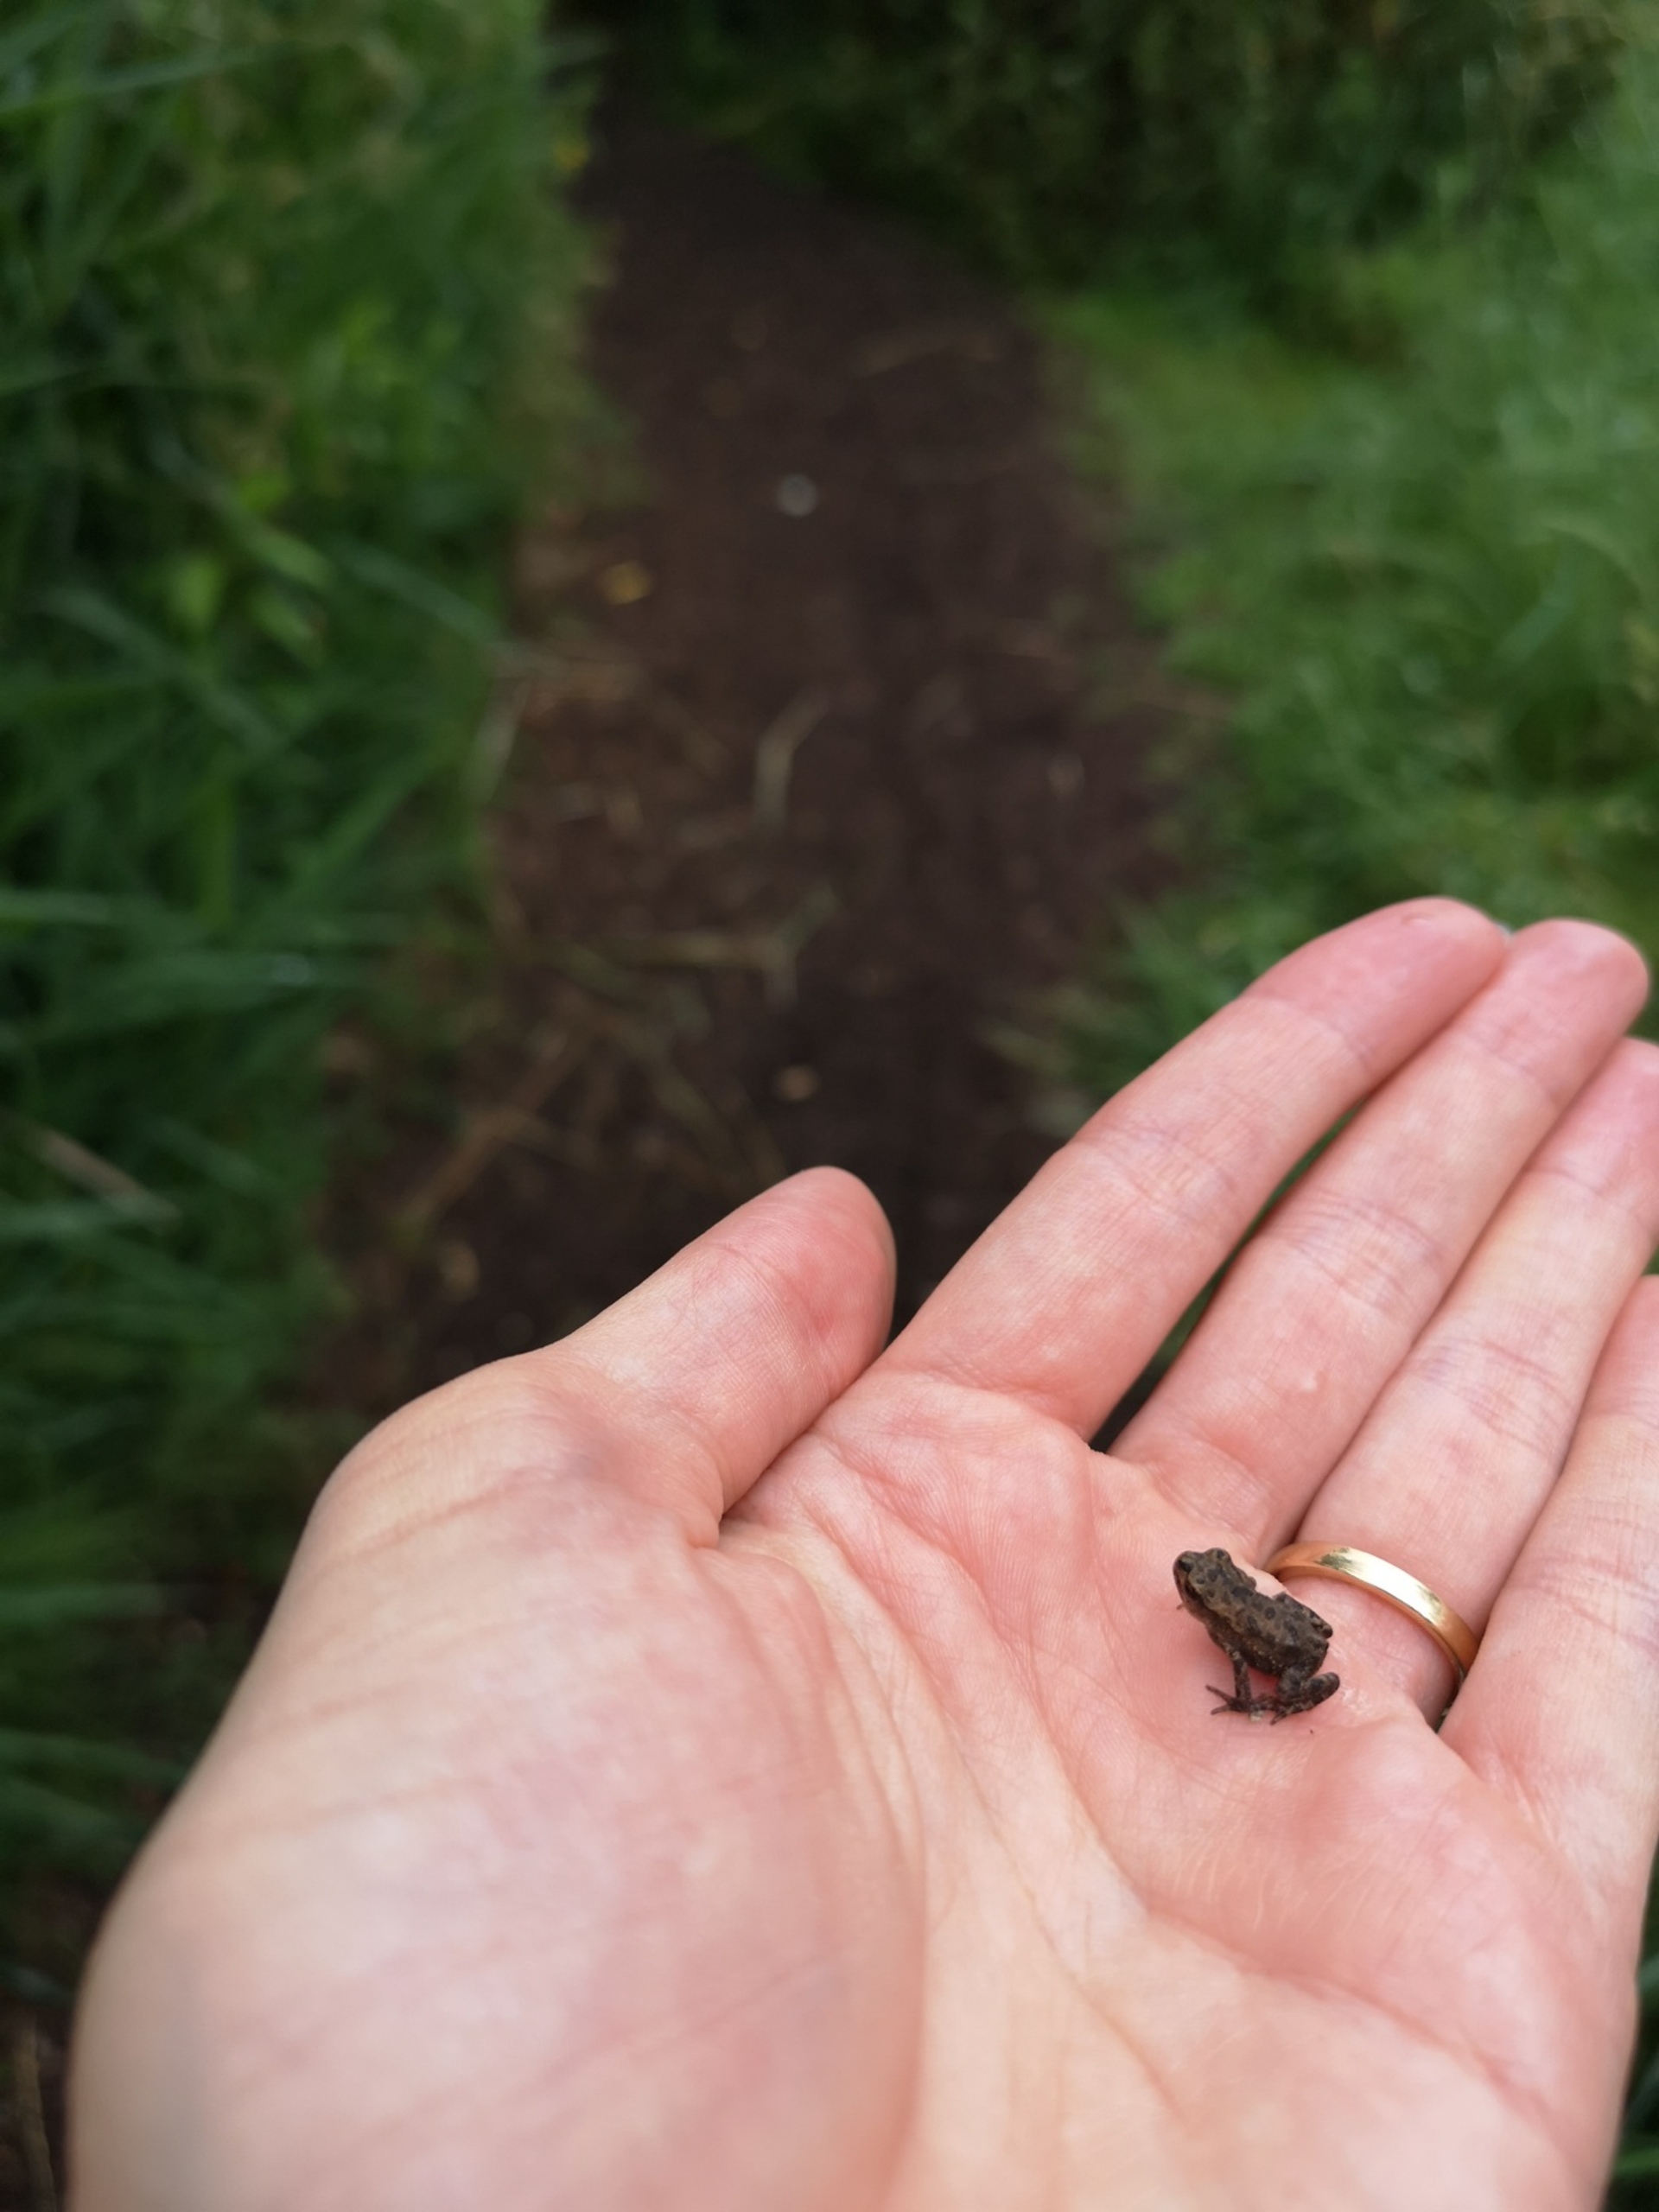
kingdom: Animalia
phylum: Chordata
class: Amphibia
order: Anura
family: Bufonidae
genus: Bufo
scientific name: Bufo bufo
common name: Skrubtudse
